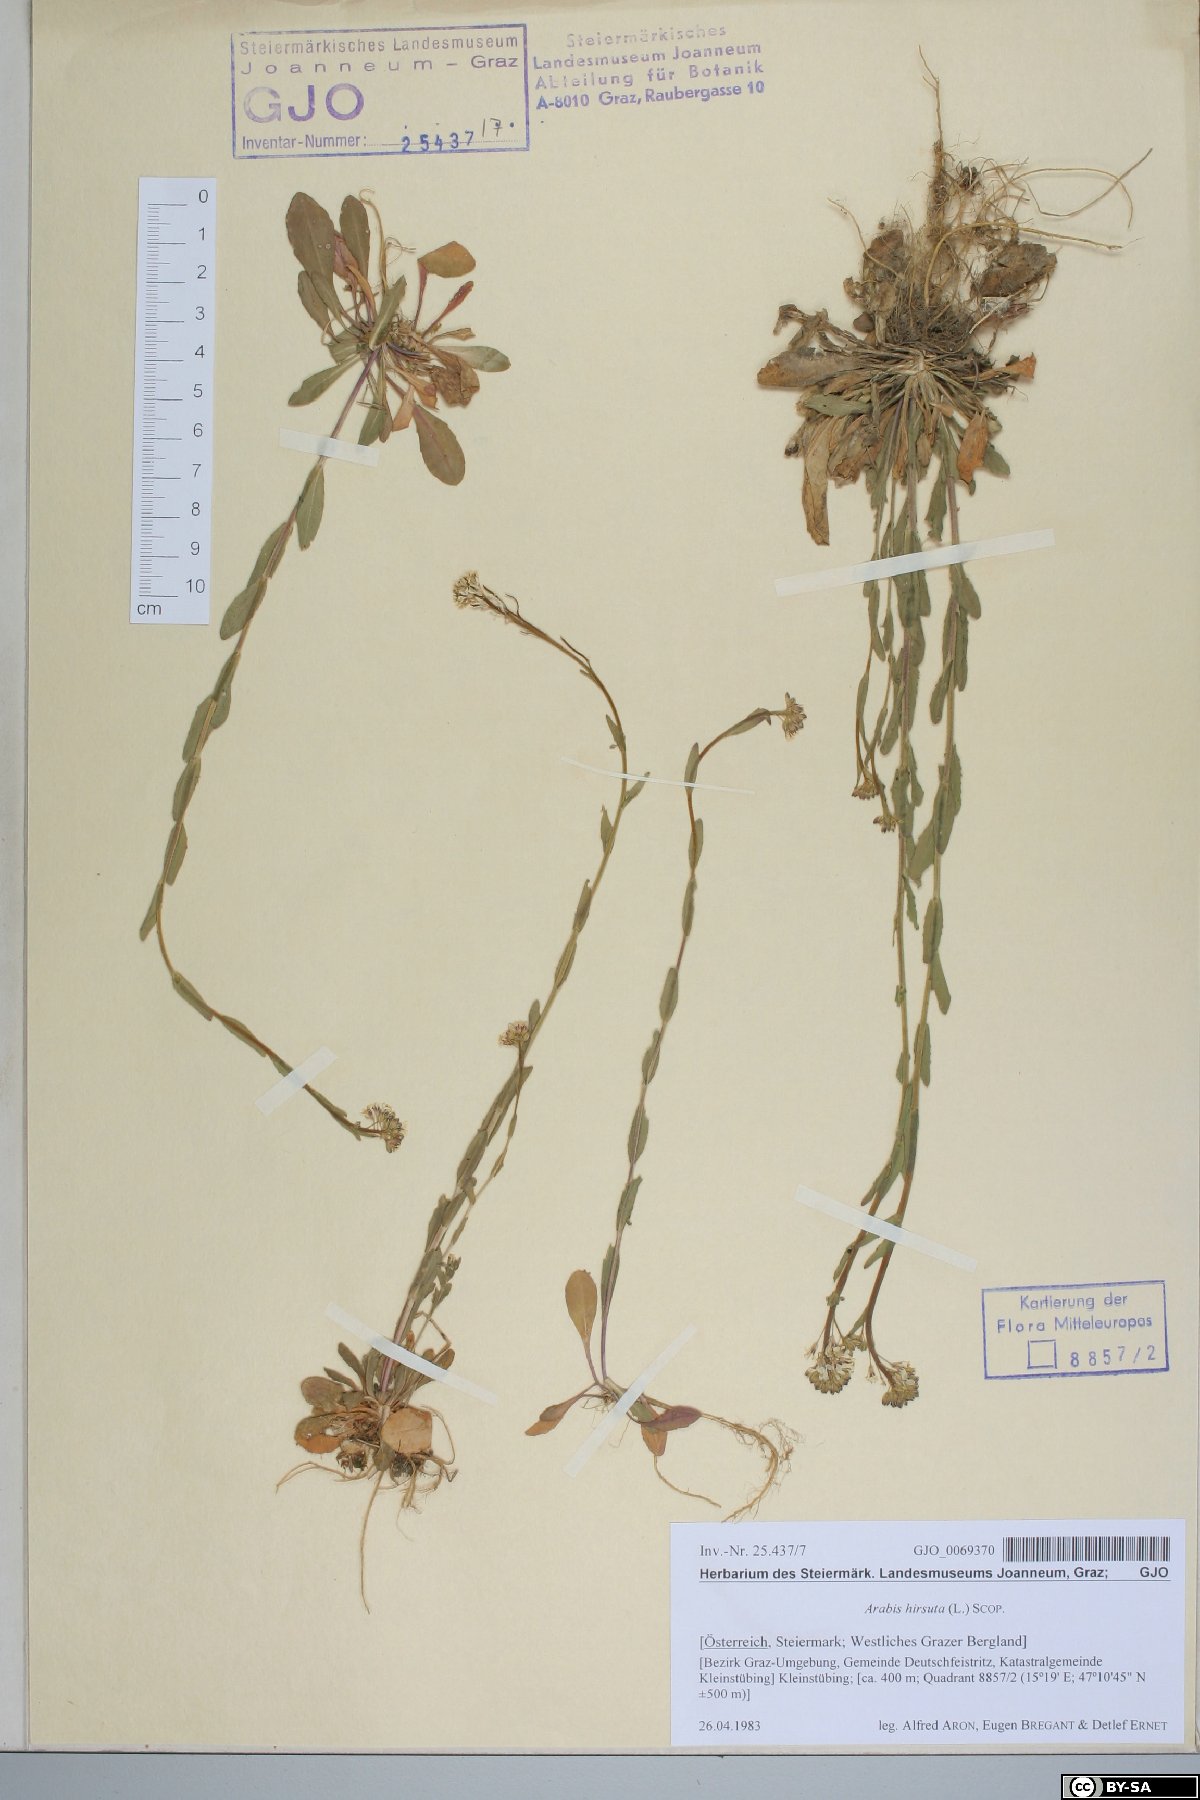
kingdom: Plantae
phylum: Tracheophyta
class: Magnoliopsida
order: Brassicales
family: Brassicaceae
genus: Arabis
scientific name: Arabis hirsuta
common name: Hairy rock-cress
